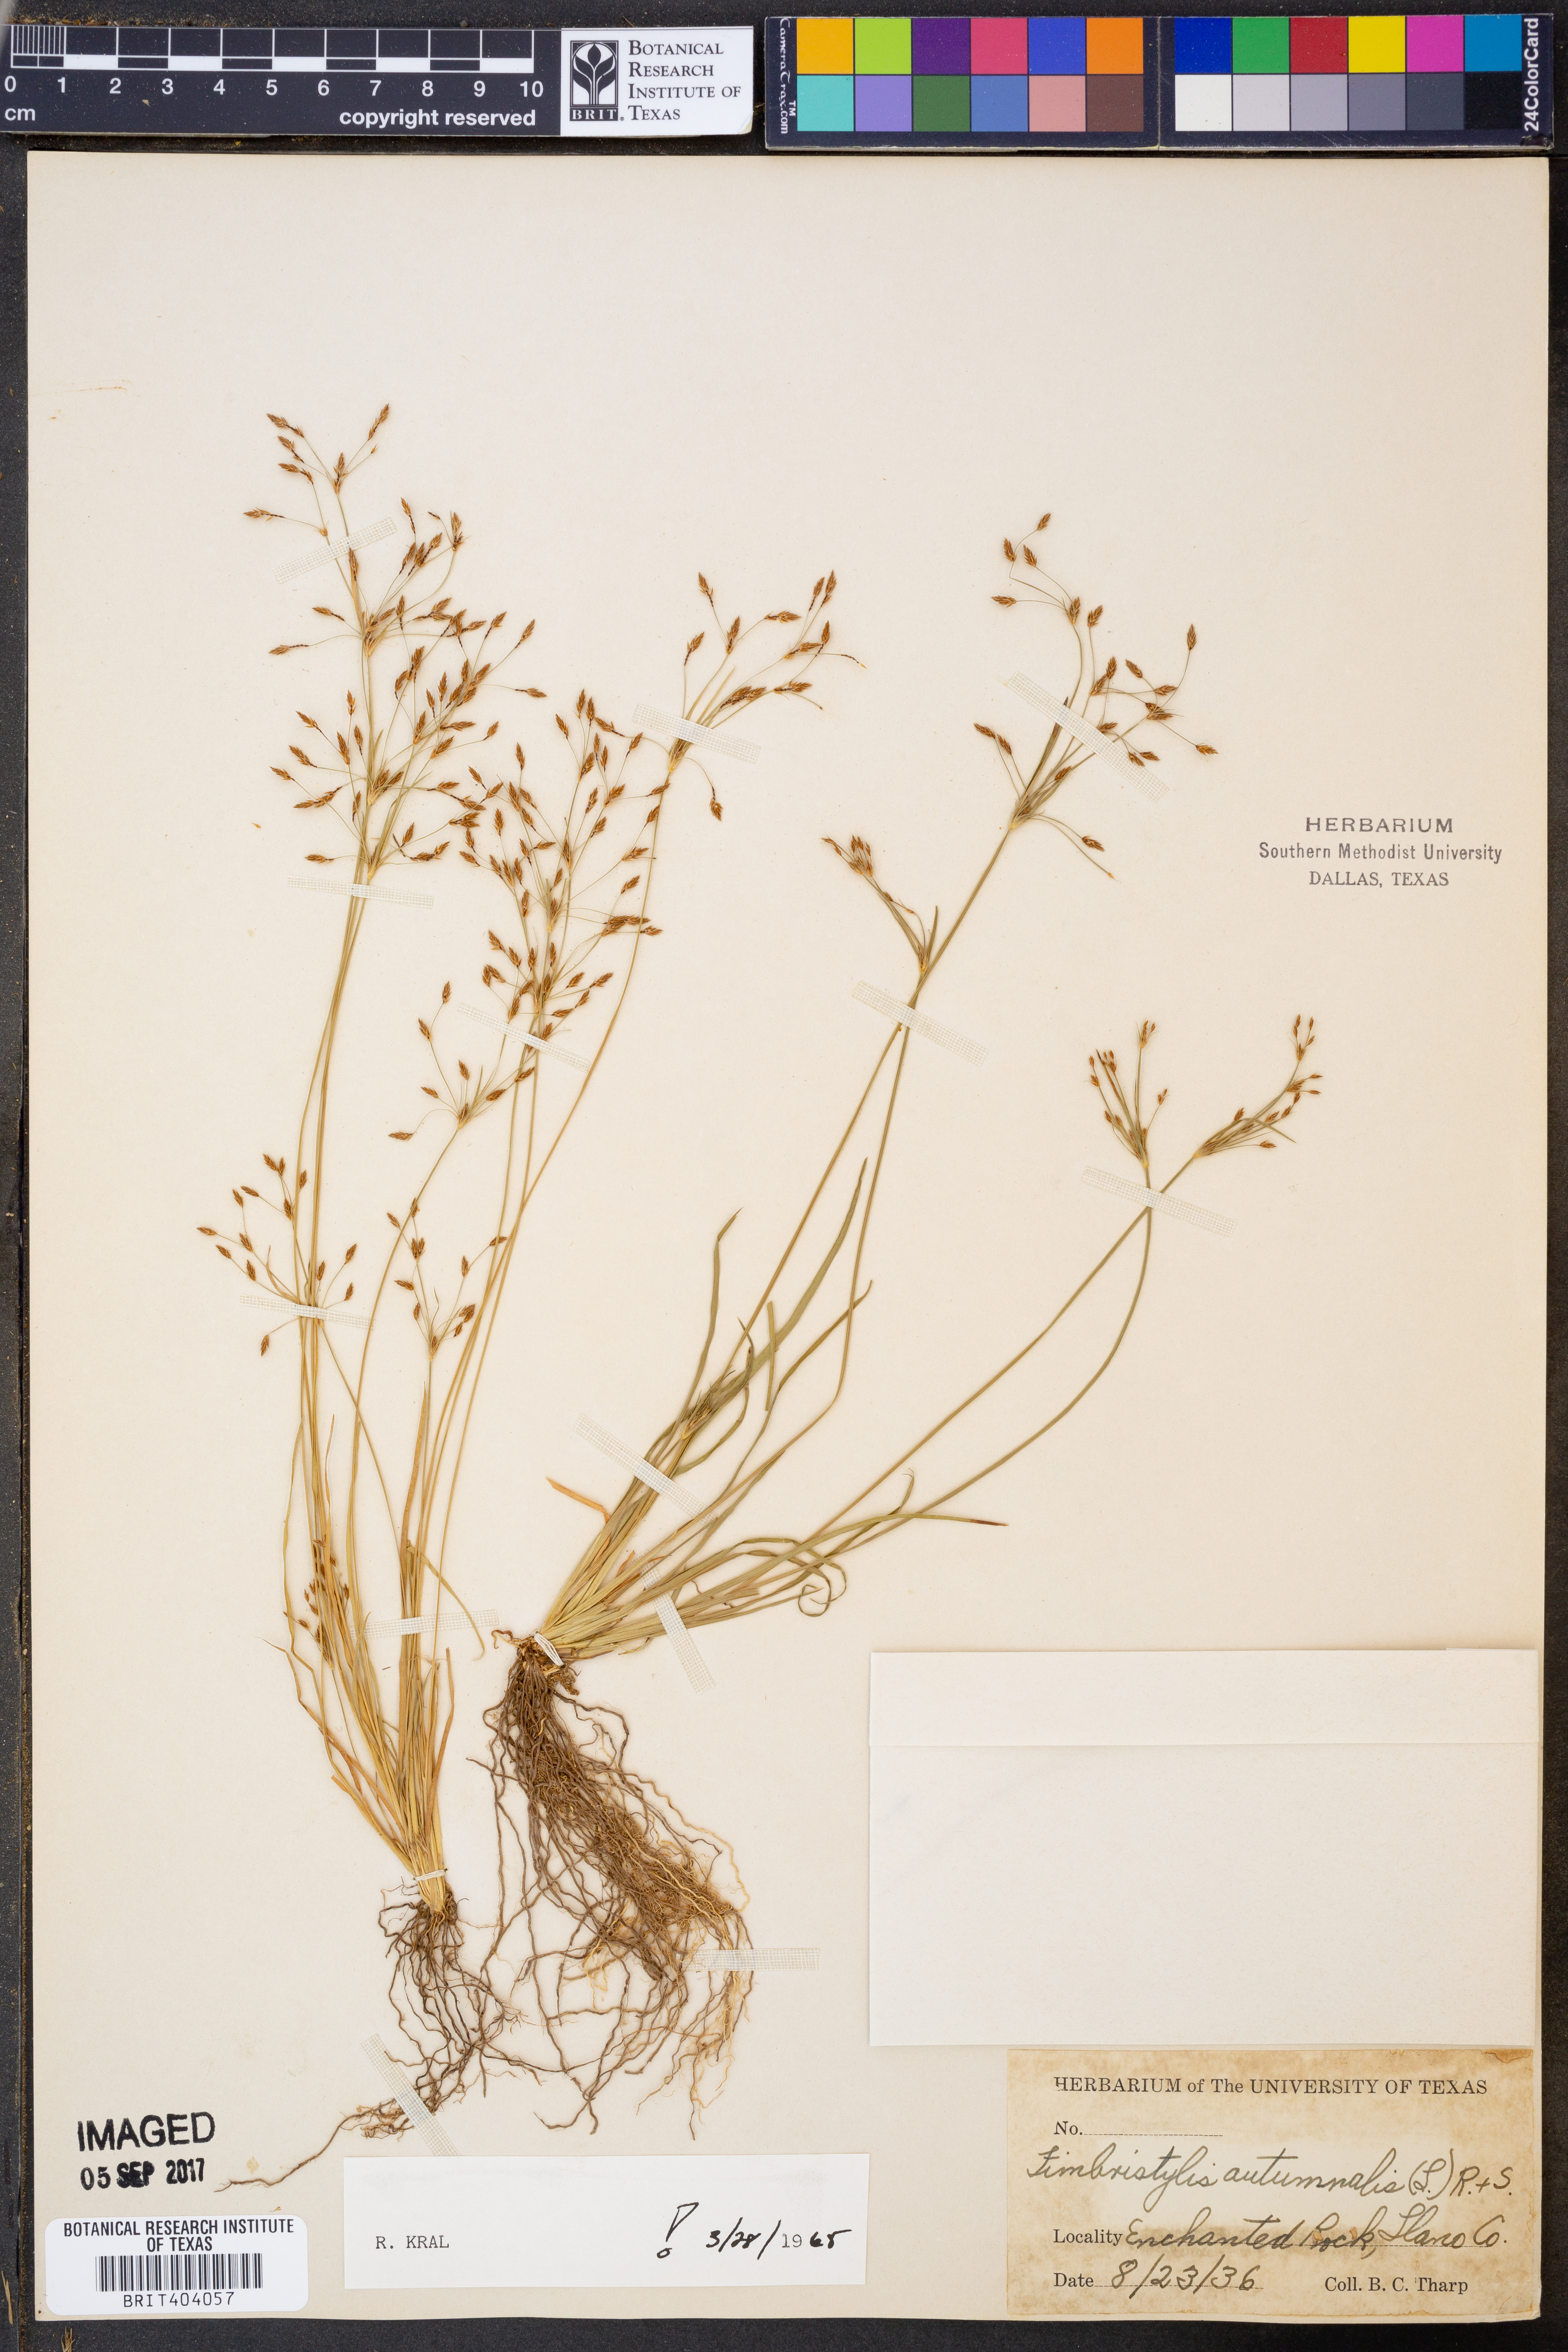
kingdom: Plantae
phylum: Tracheophyta
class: Liliopsida
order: Poales
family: Cyperaceae
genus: Fimbristylis
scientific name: Fimbristylis autumnalis
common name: Slender fimbristylis
